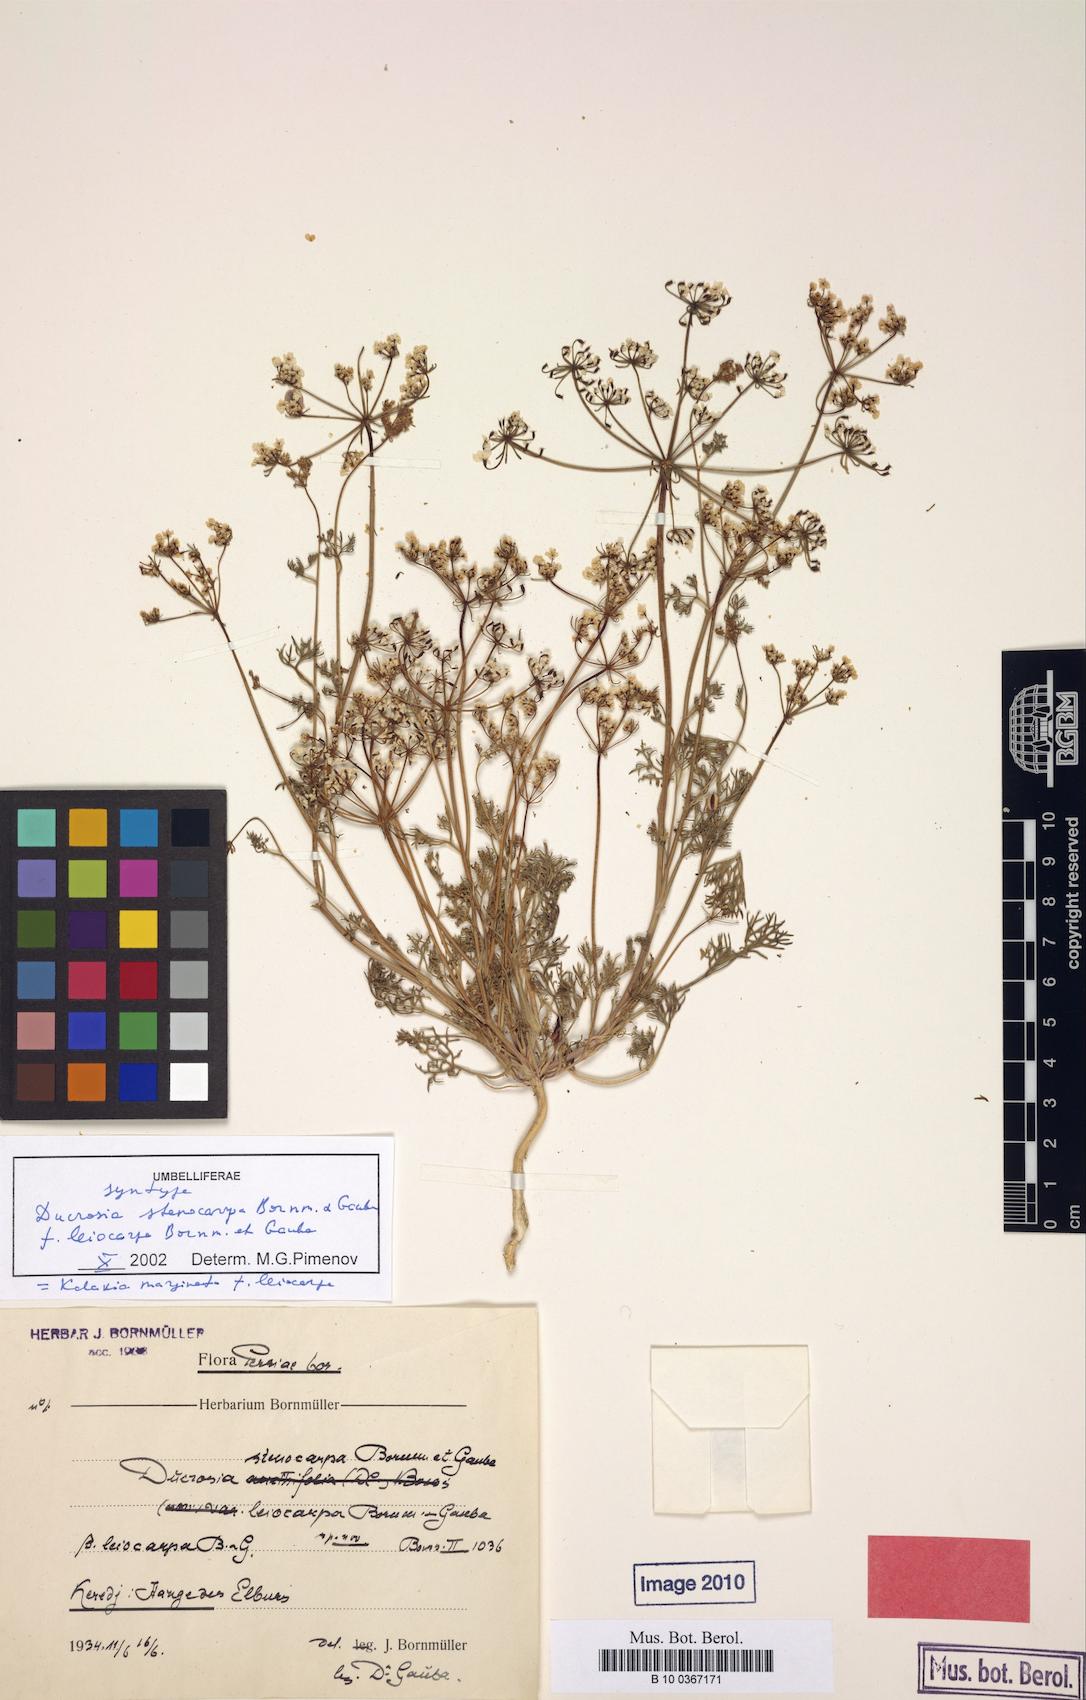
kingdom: Plantae
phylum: Tracheophyta
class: Magnoliopsida
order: Apiales
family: Apiaceae
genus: Kalakia
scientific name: Kalakia marginata
